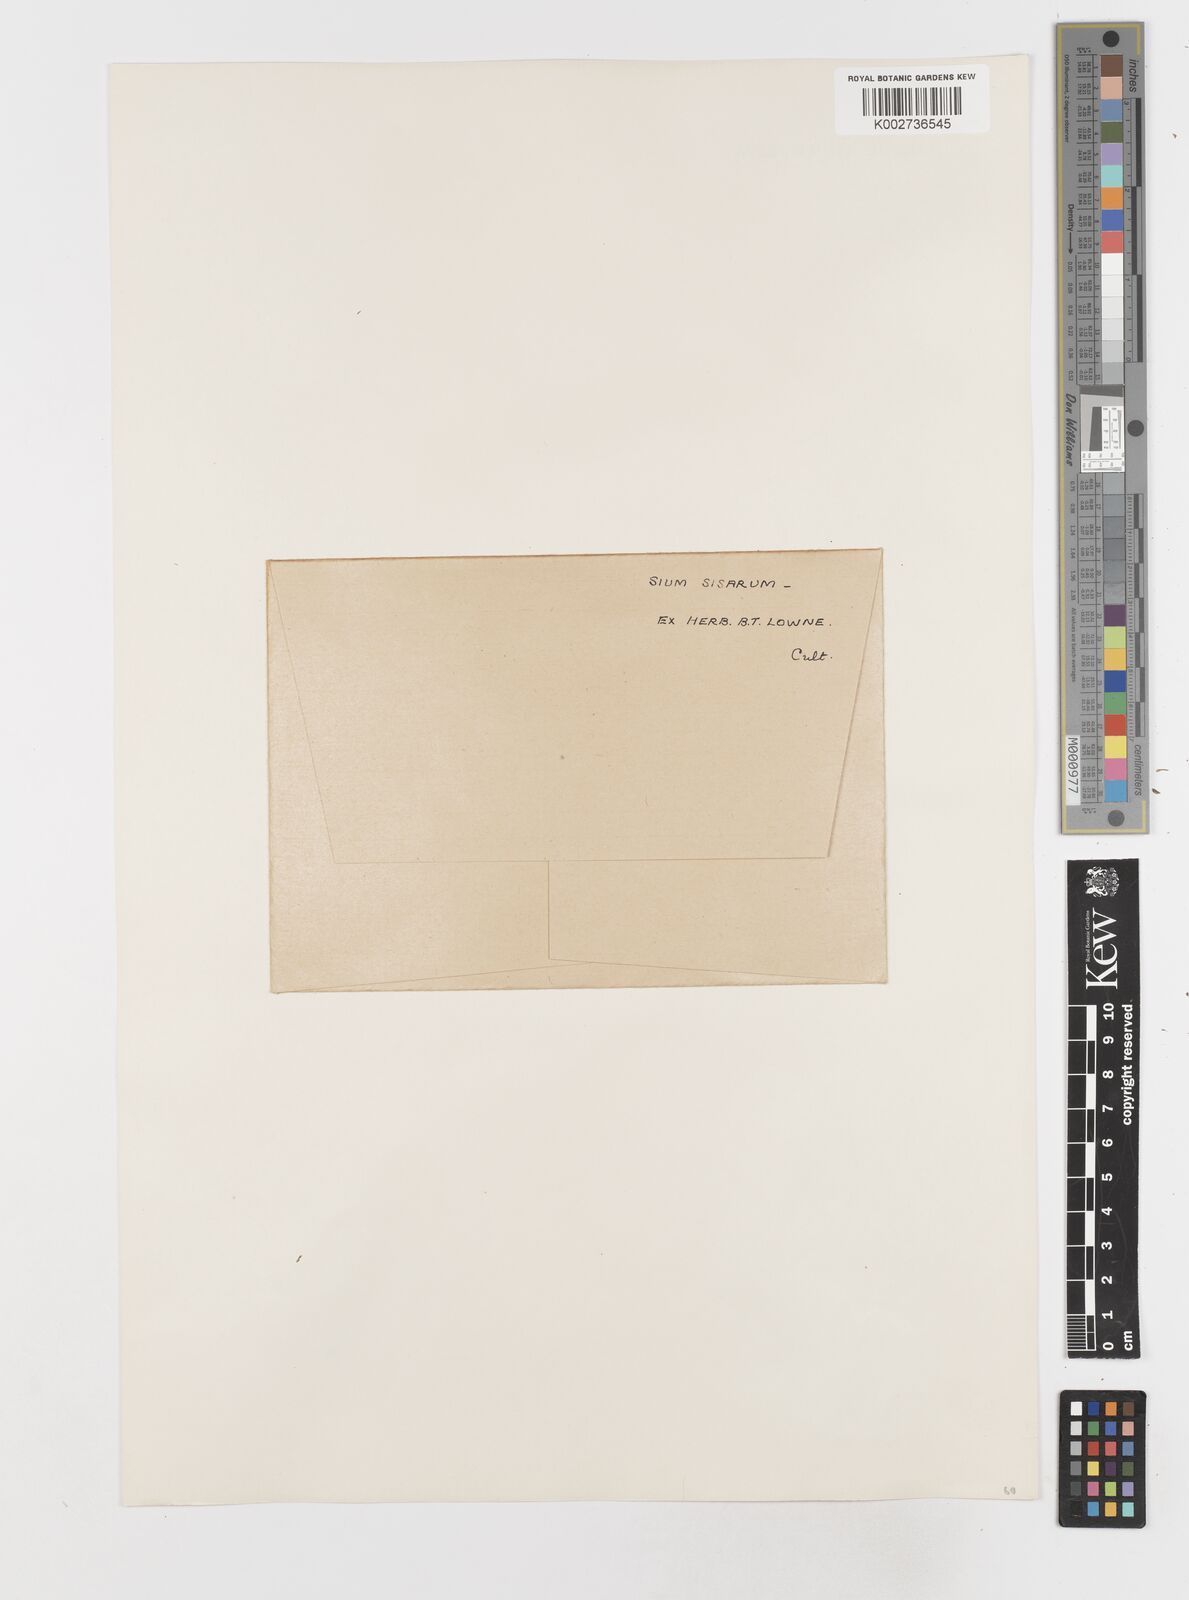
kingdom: Plantae
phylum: Tracheophyta
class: Magnoliopsida
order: Apiales
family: Apiaceae
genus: Sium
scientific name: Sium sisarum
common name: Skirret
